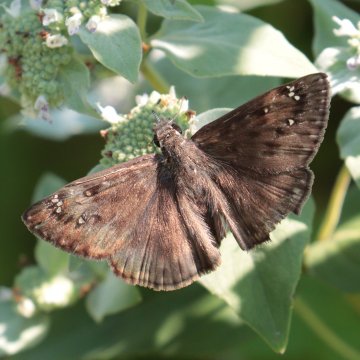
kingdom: Animalia
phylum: Arthropoda
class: Insecta
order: Lepidoptera
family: Hesperiidae
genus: Gesta
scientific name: Gesta
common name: Horace's Duskywing
